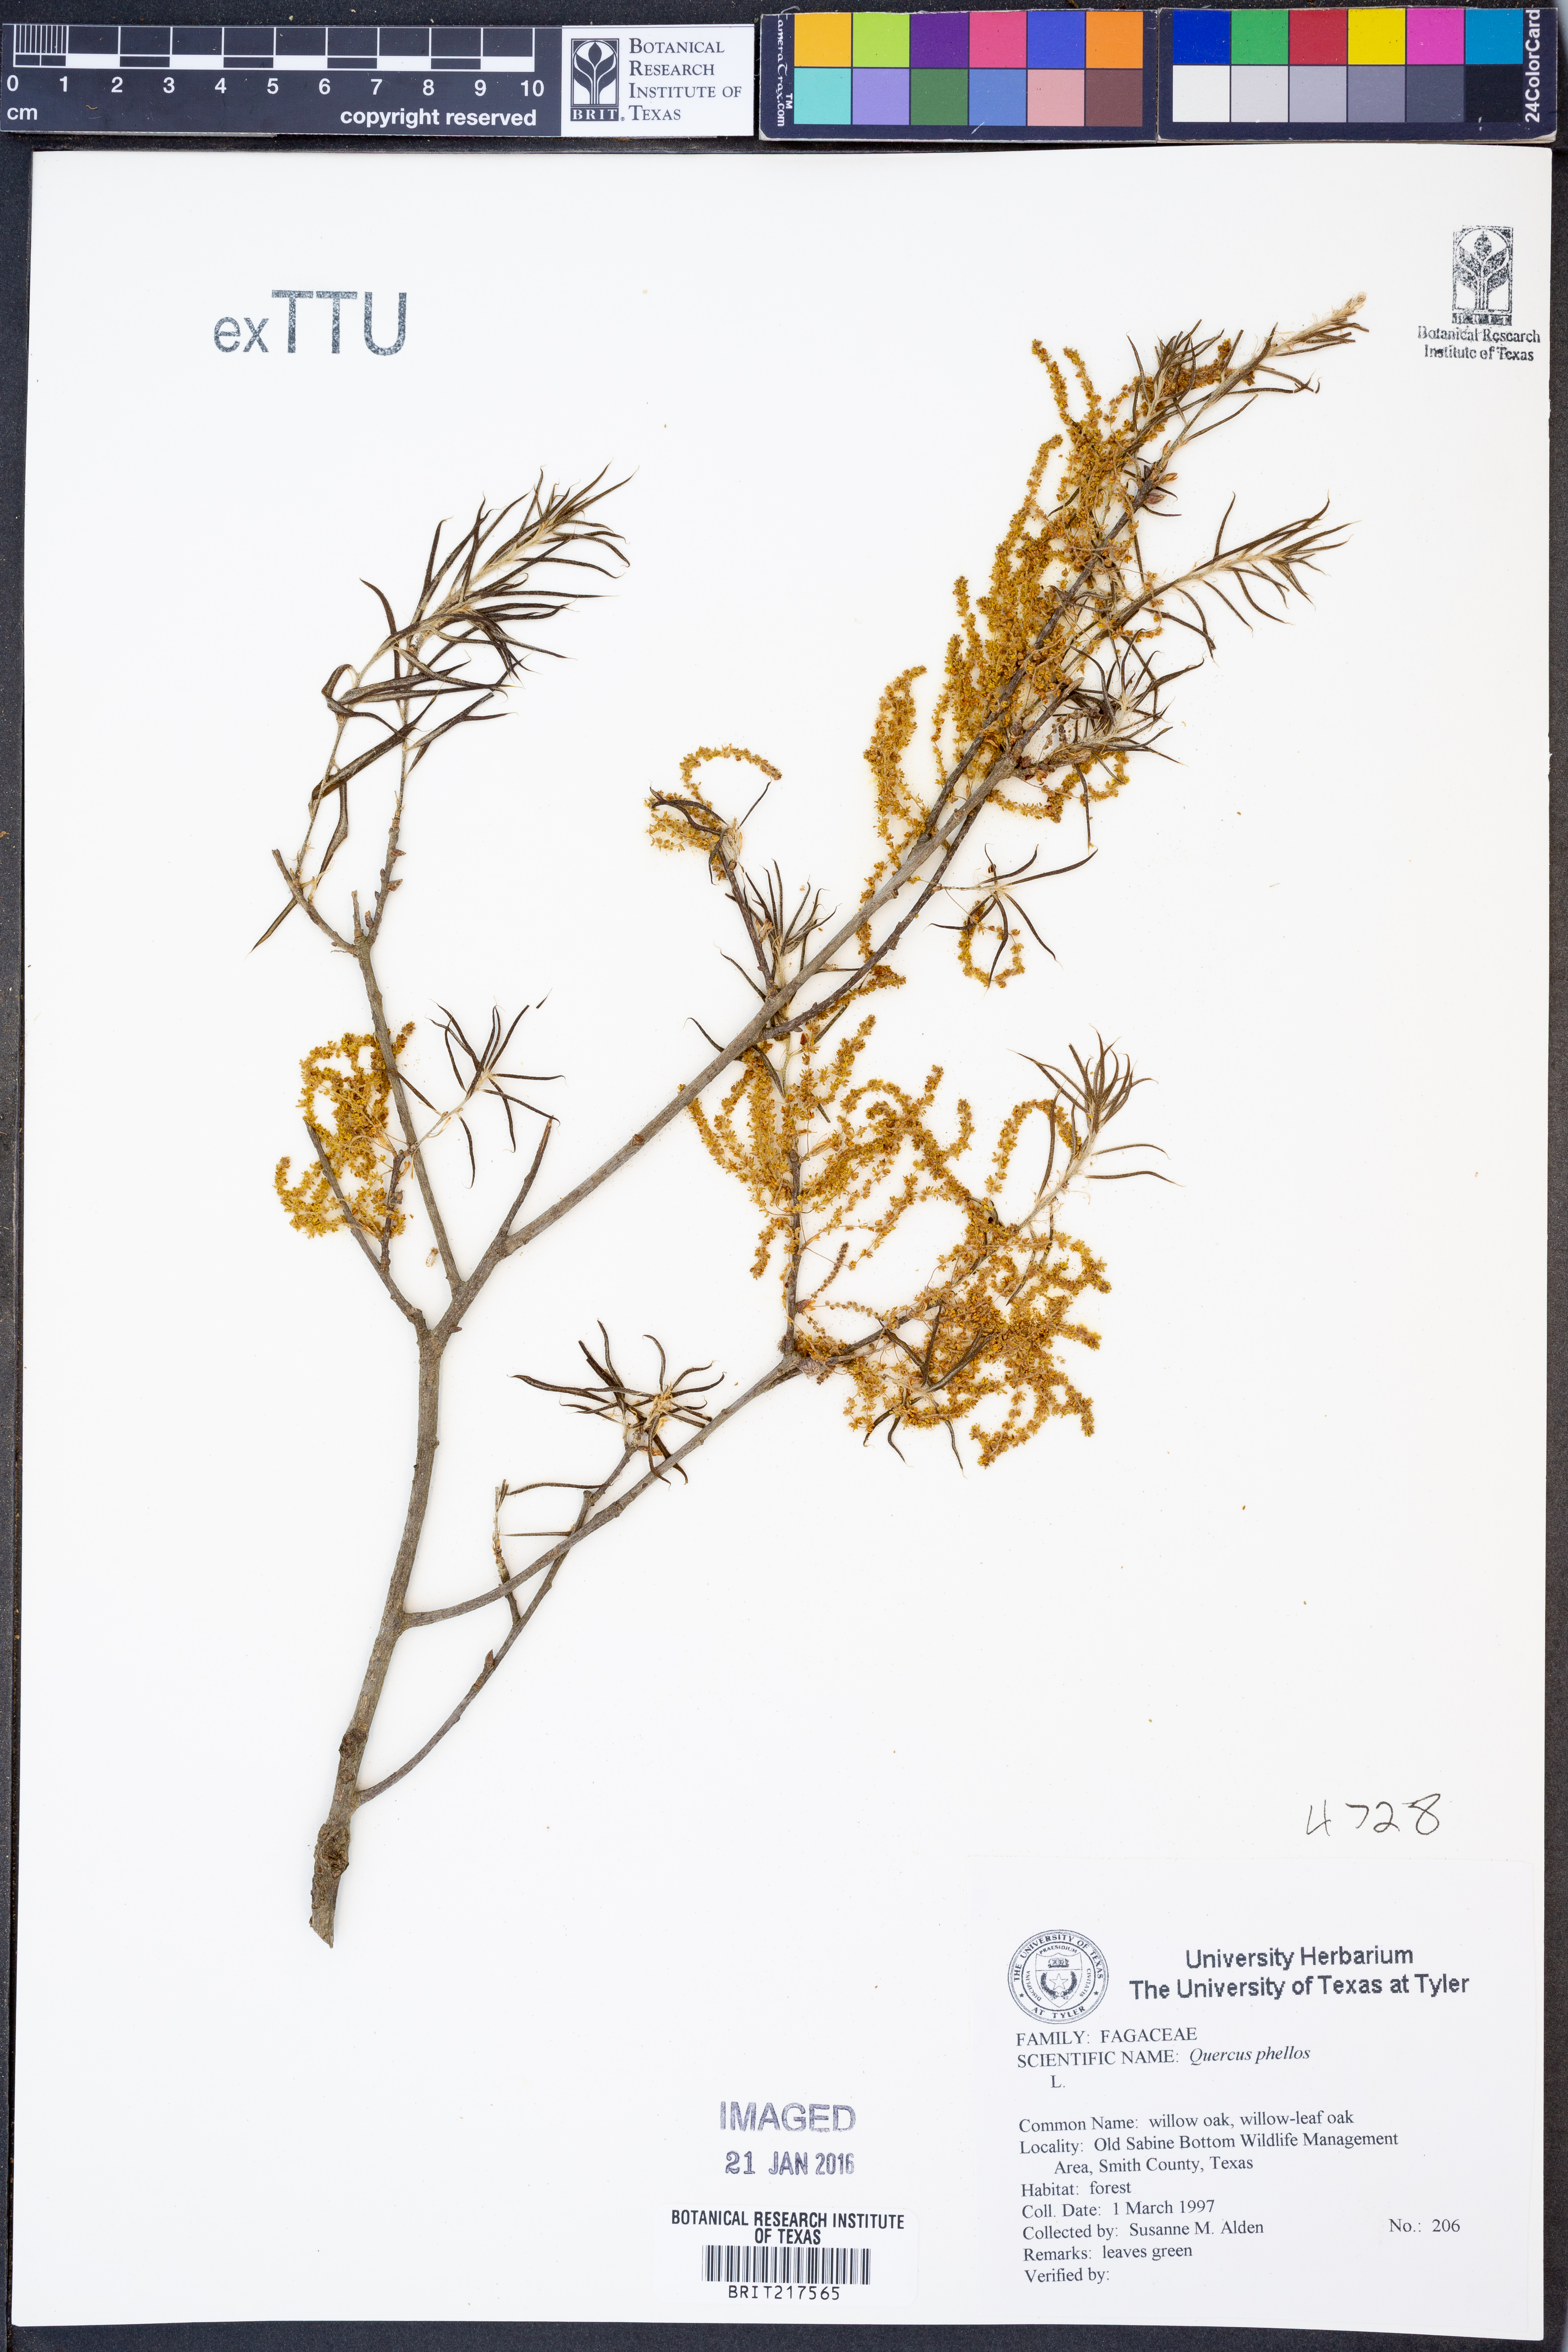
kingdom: Plantae
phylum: Tracheophyta
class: Magnoliopsida
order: Fagales
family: Fagaceae
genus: Quercus
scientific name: Quercus phellos
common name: Willow oak
